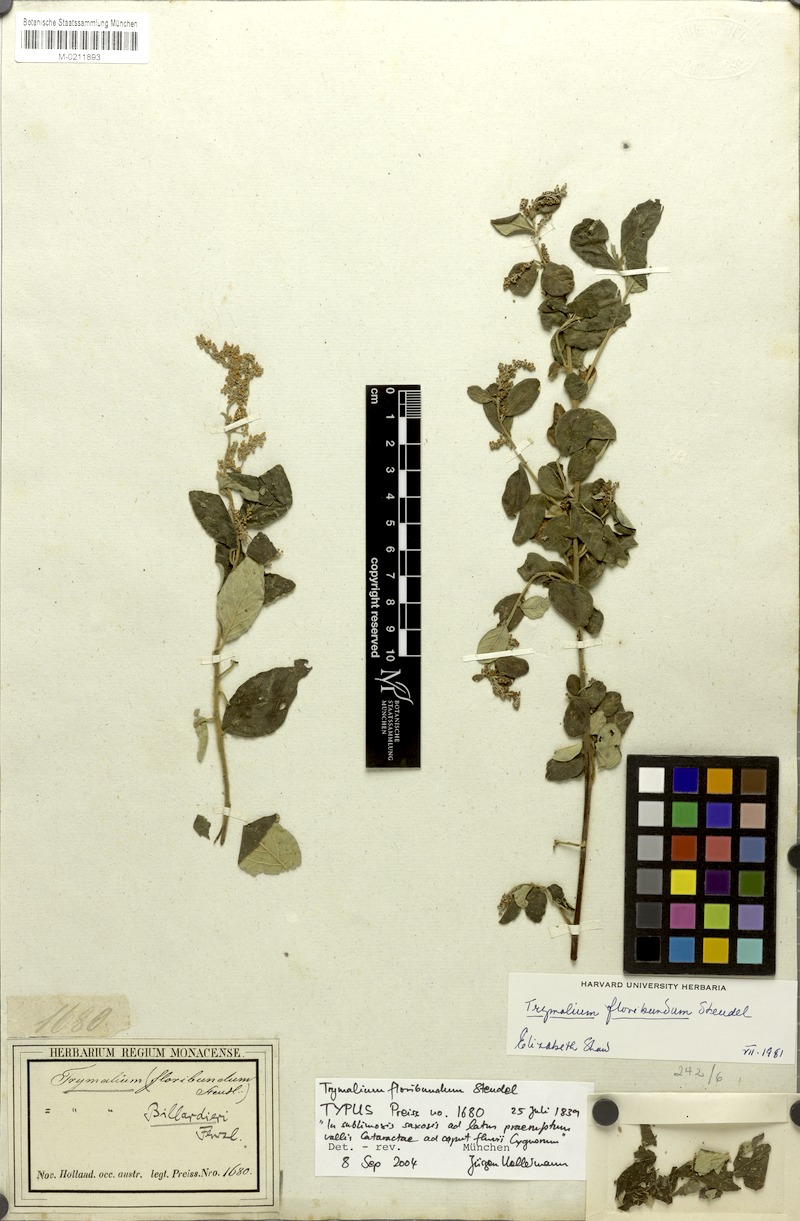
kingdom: Plantae
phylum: Tracheophyta
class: Magnoliopsida
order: Rosales
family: Rhamnaceae
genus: Trymalium
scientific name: Trymalium odoratissimum
